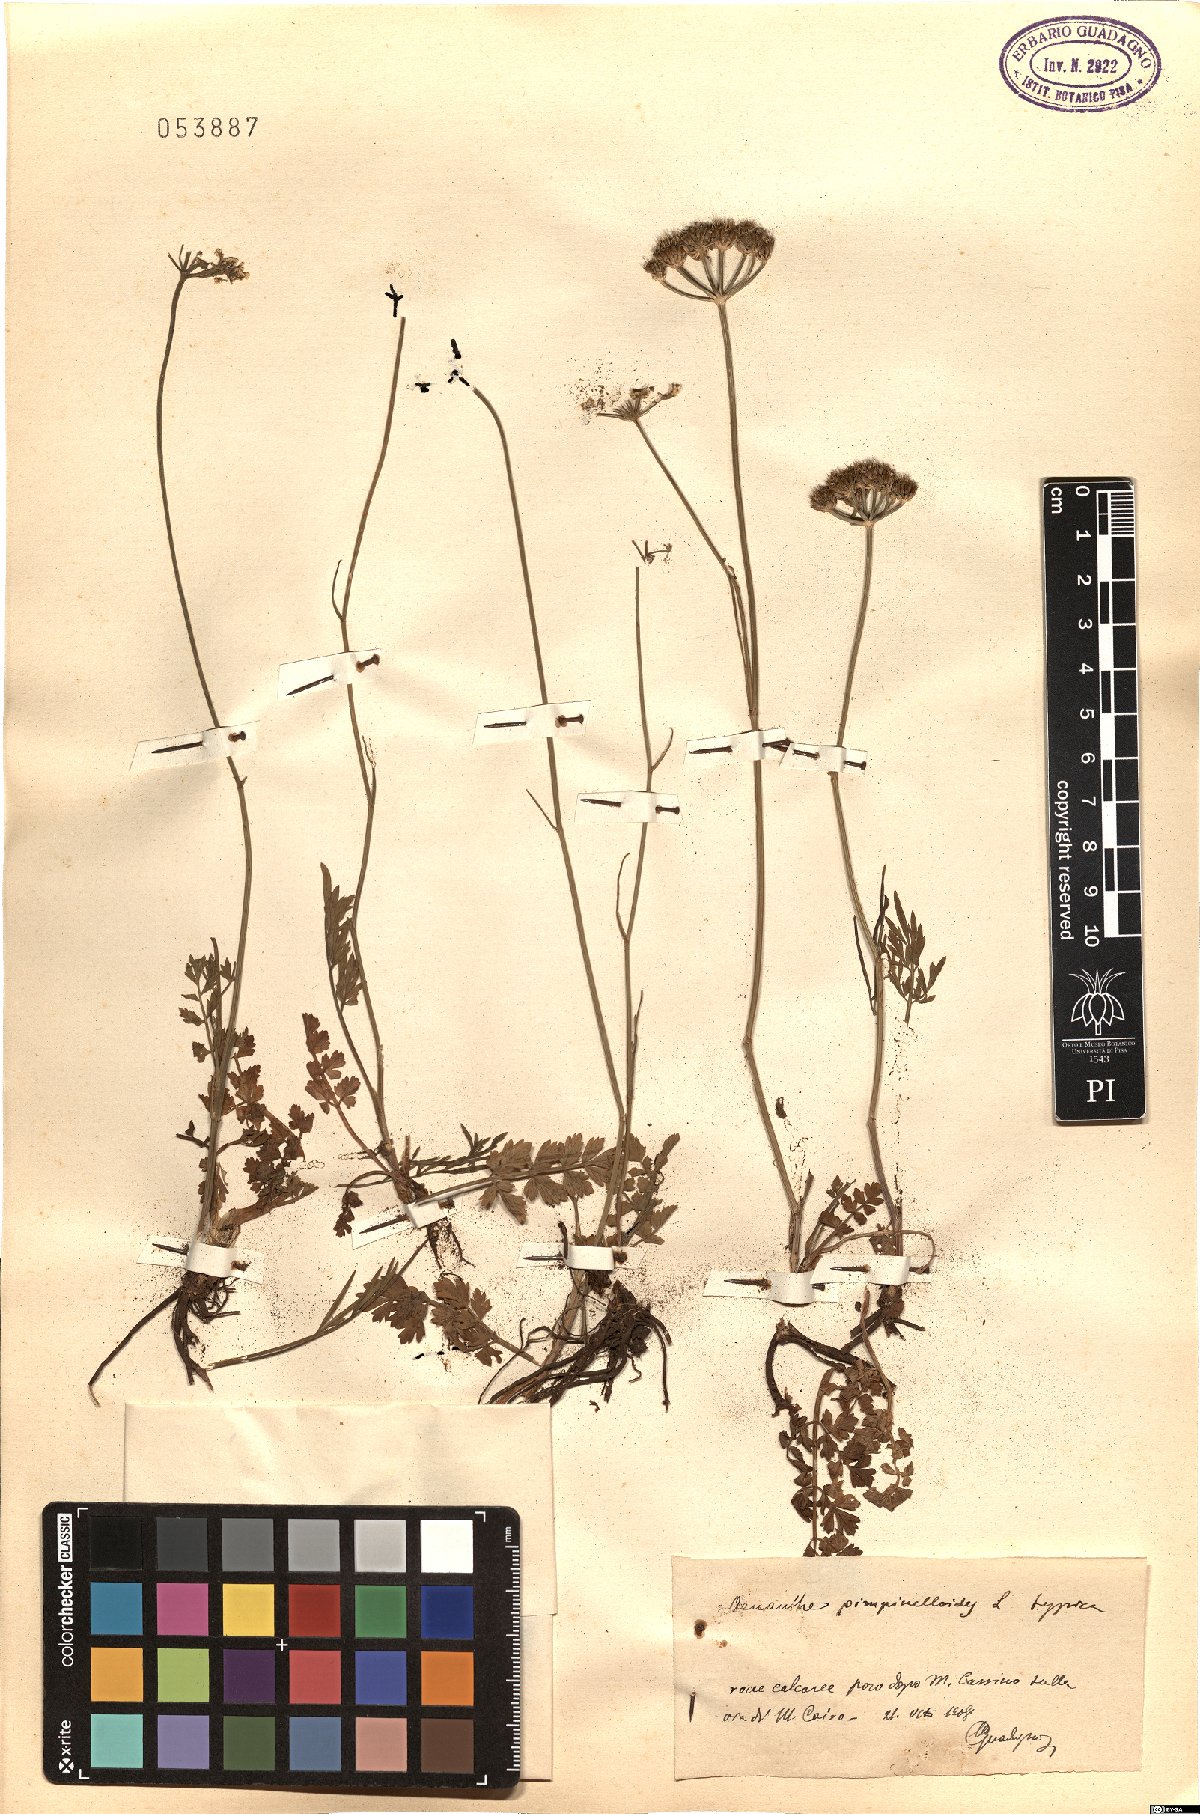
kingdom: Plantae
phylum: Tracheophyta
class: Magnoliopsida
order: Apiales
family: Apiaceae
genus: Oenanthe
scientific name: Oenanthe pimpinelloides
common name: Corky-fruited water-dropwort
